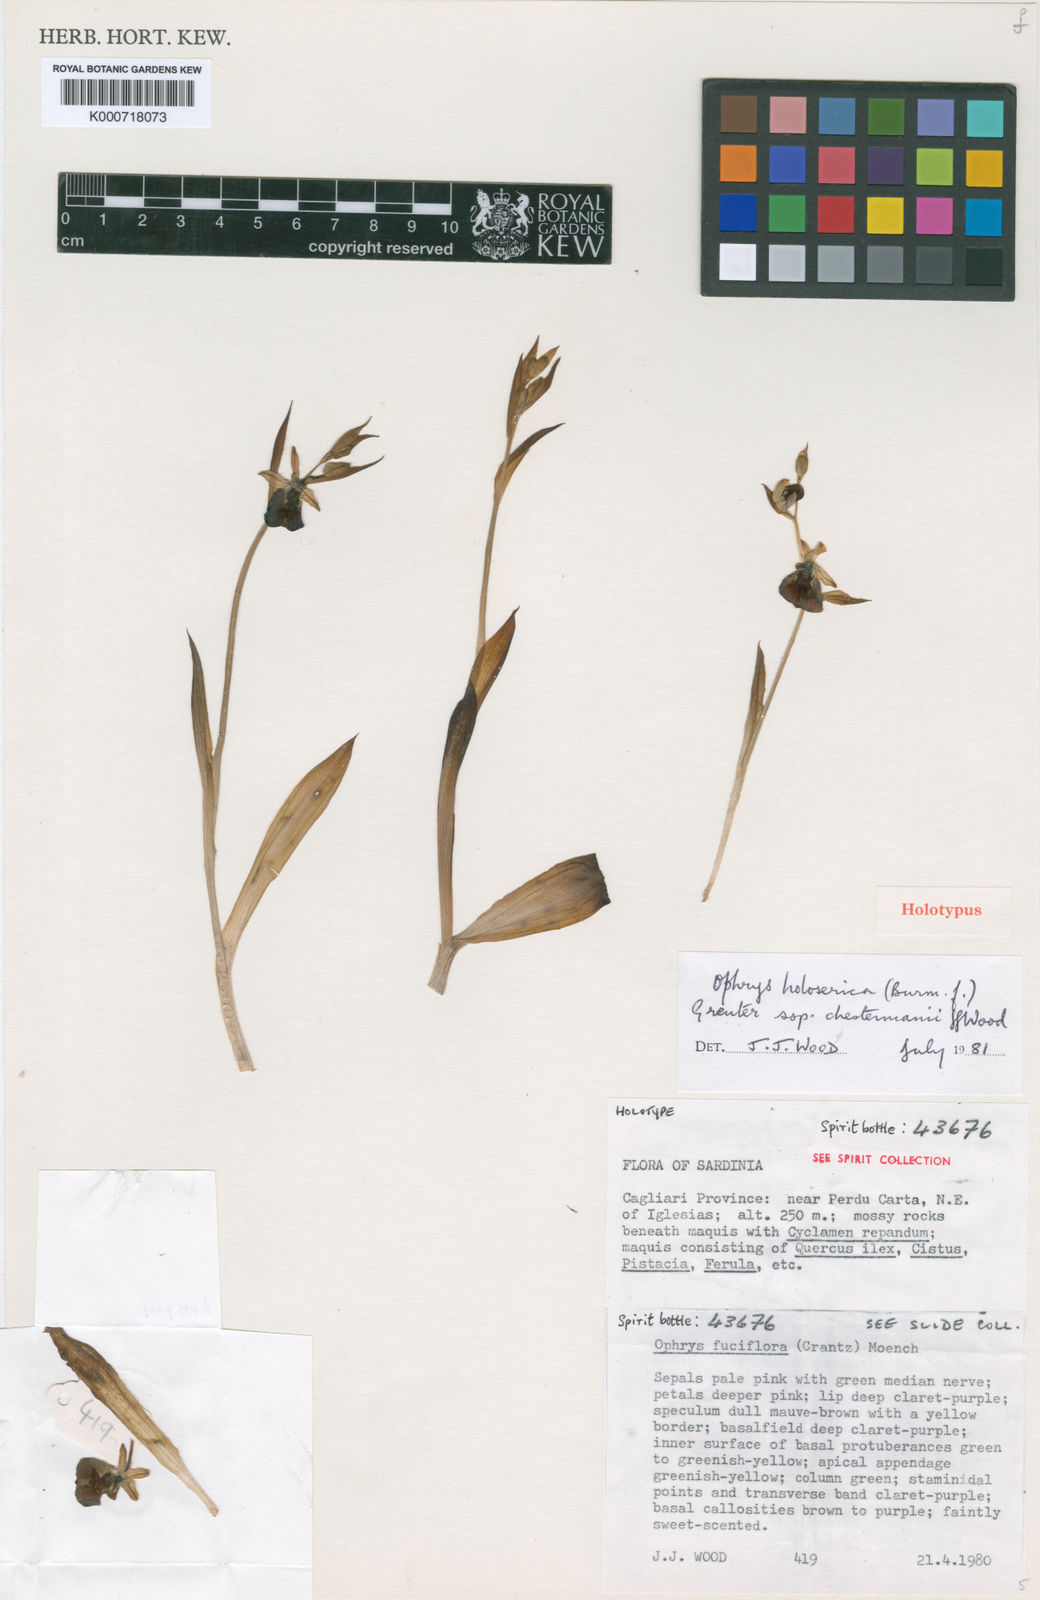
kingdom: Plantae
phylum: Tracheophyta
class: Liliopsida
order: Asparagales
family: Orchidaceae
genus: Ophrys
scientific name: Ophrys holosericea
